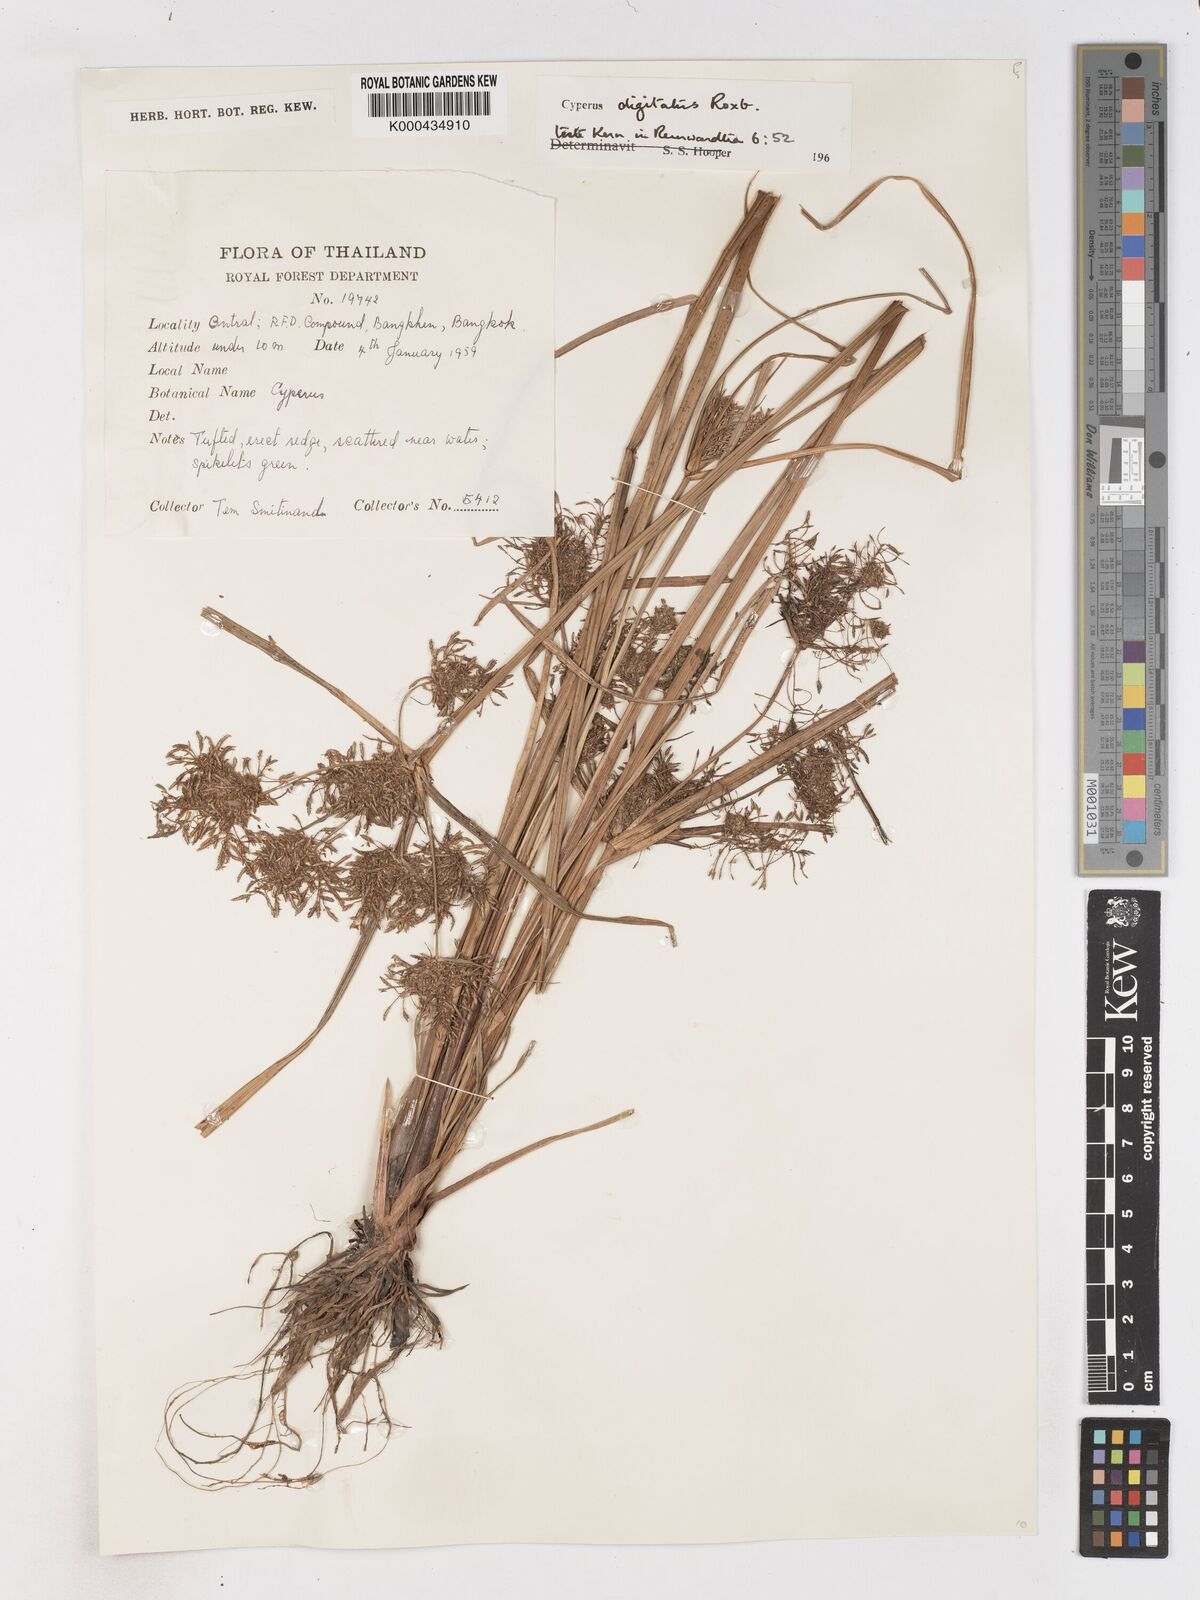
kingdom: Plantae
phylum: Tracheophyta
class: Liliopsida
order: Poales
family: Cyperaceae
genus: Cyperus
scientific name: Cyperus digitatus
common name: Finger flatsedge
